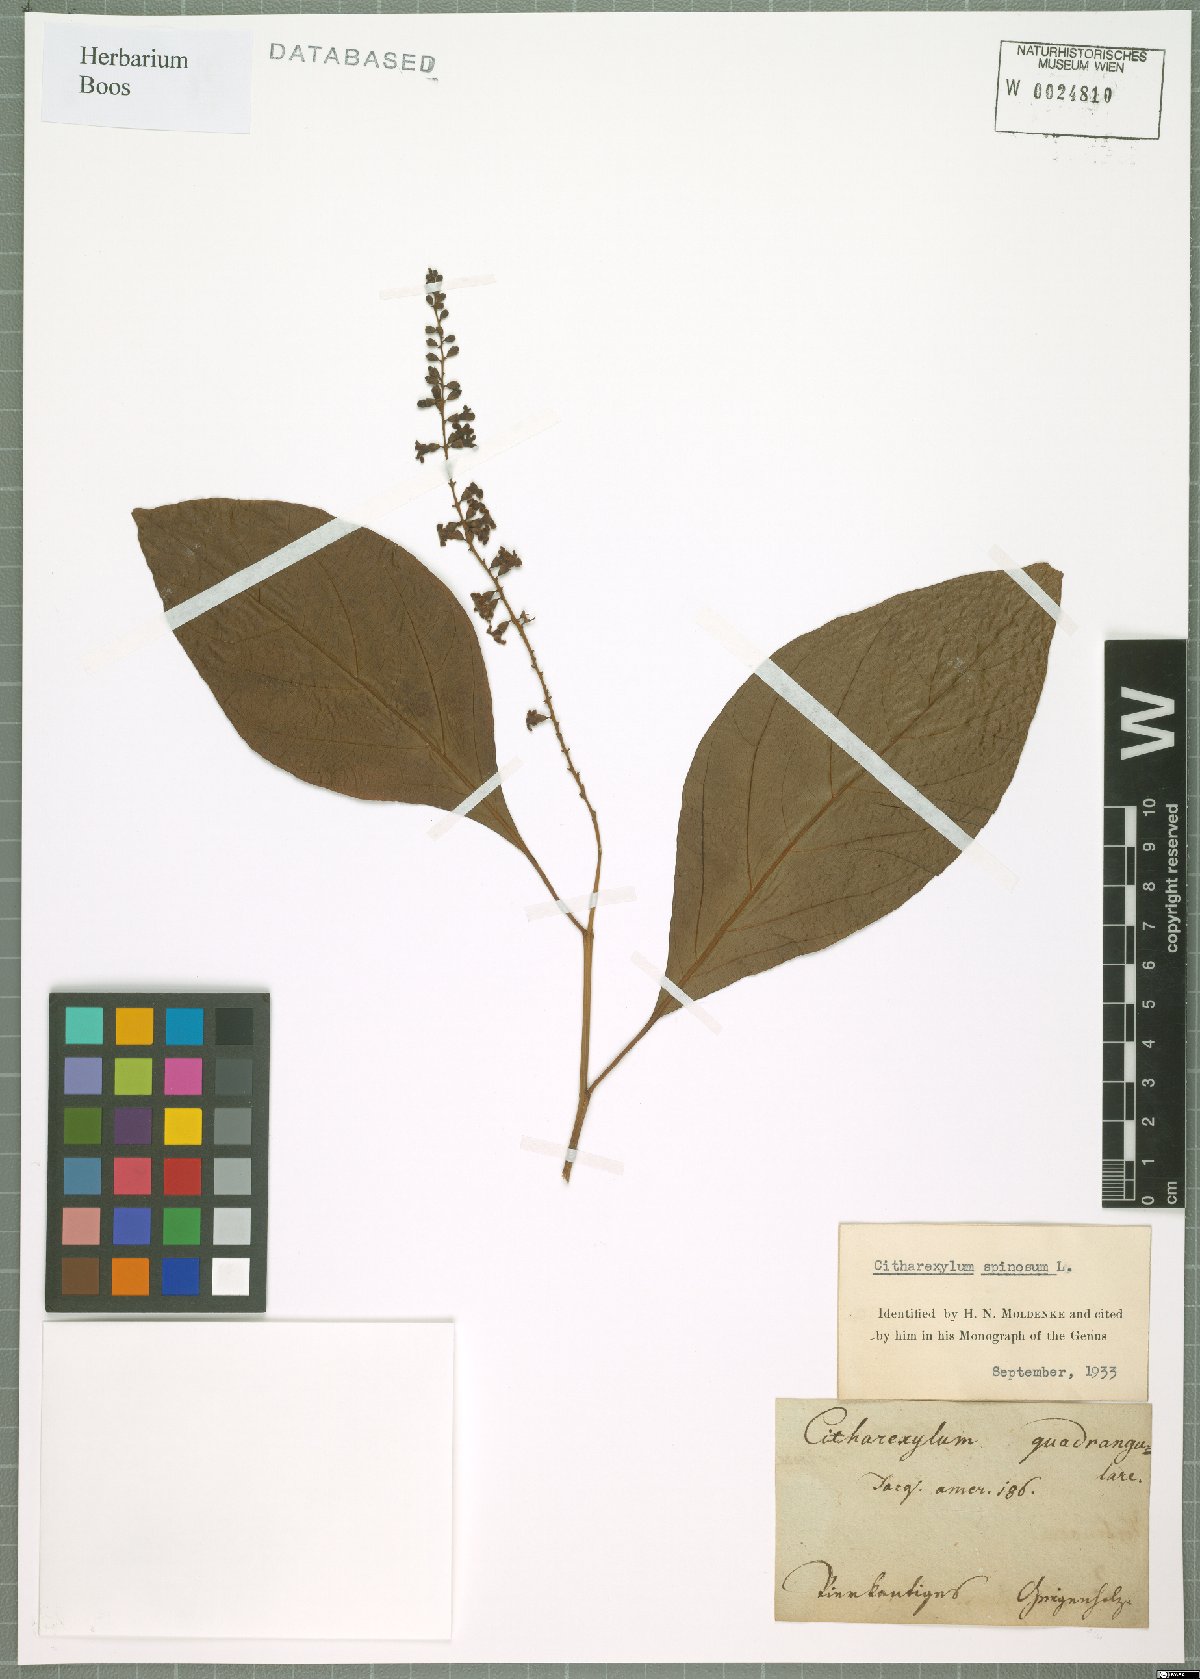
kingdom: Plantae
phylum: Tracheophyta
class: Magnoliopsida
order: Lamiales
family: Verbenaceae
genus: Citharexylum
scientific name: Citharexylum spinosum
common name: Fiddlewood
